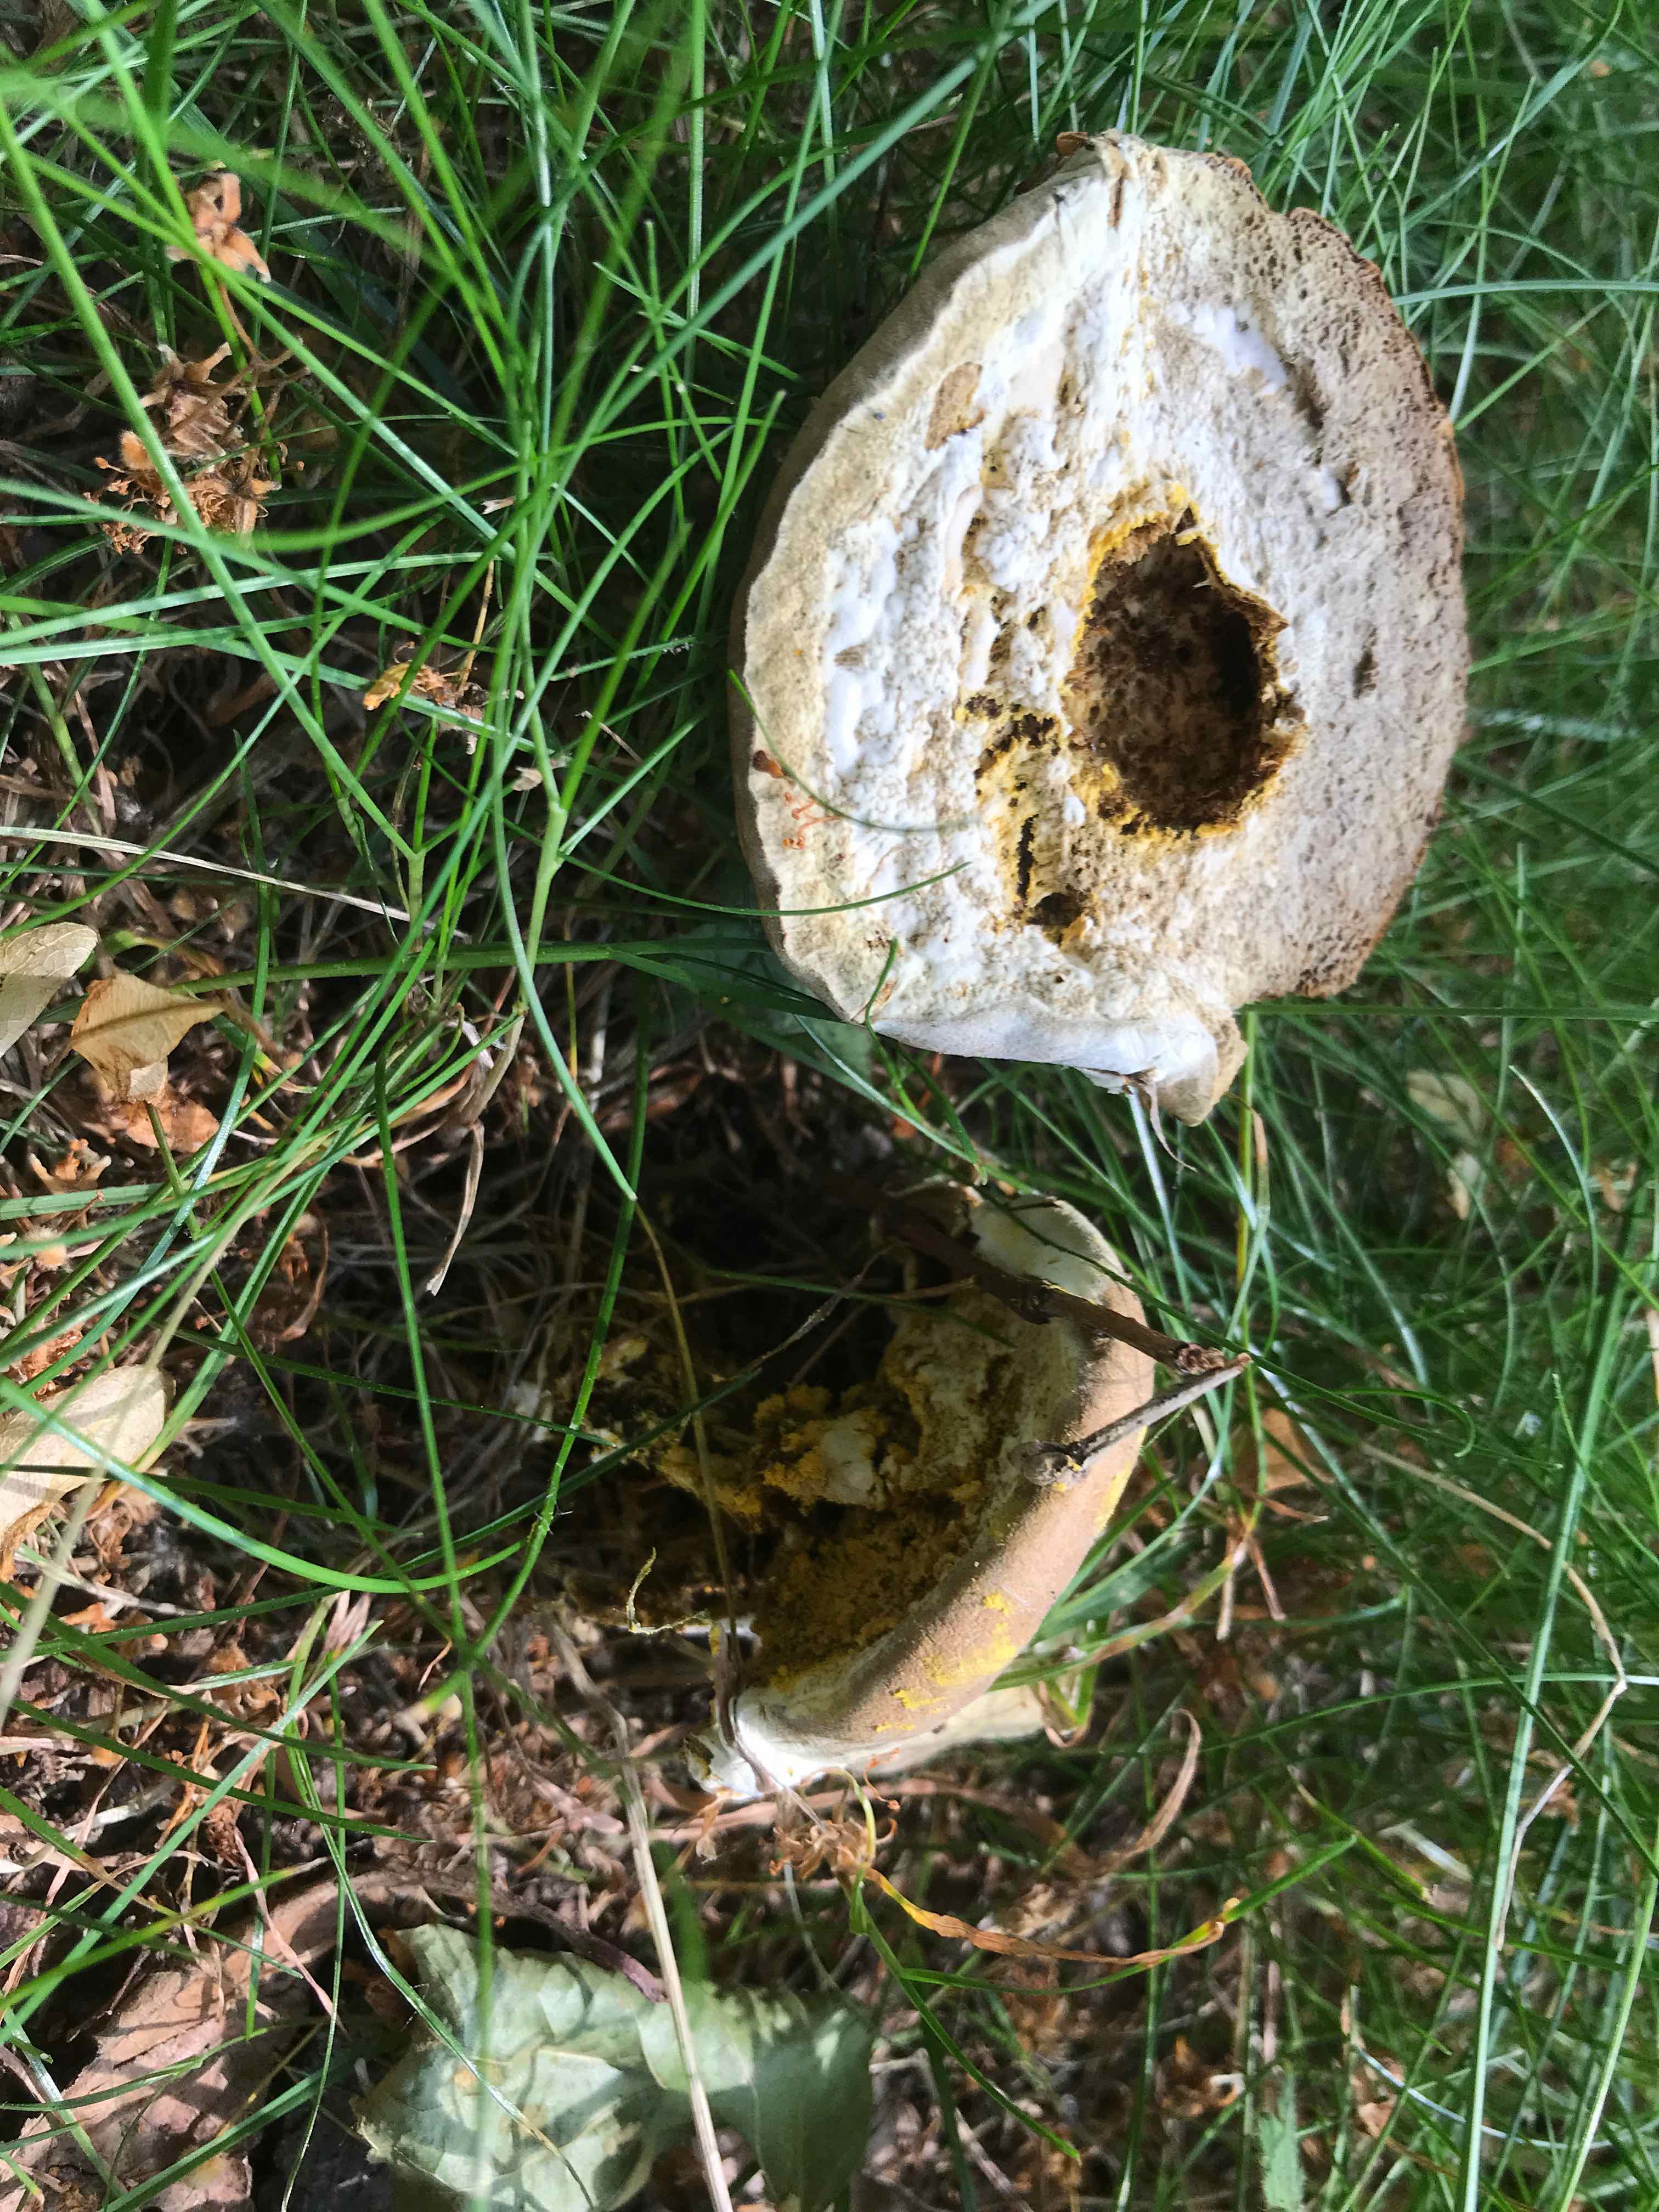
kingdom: Fungi
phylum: Ascomycota
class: Sordariomycetes
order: Hypocreales
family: Hypocreaceae
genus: Hypomyces
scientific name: Hypomyces microspermus
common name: dværgrørhat-snylteskorpe
